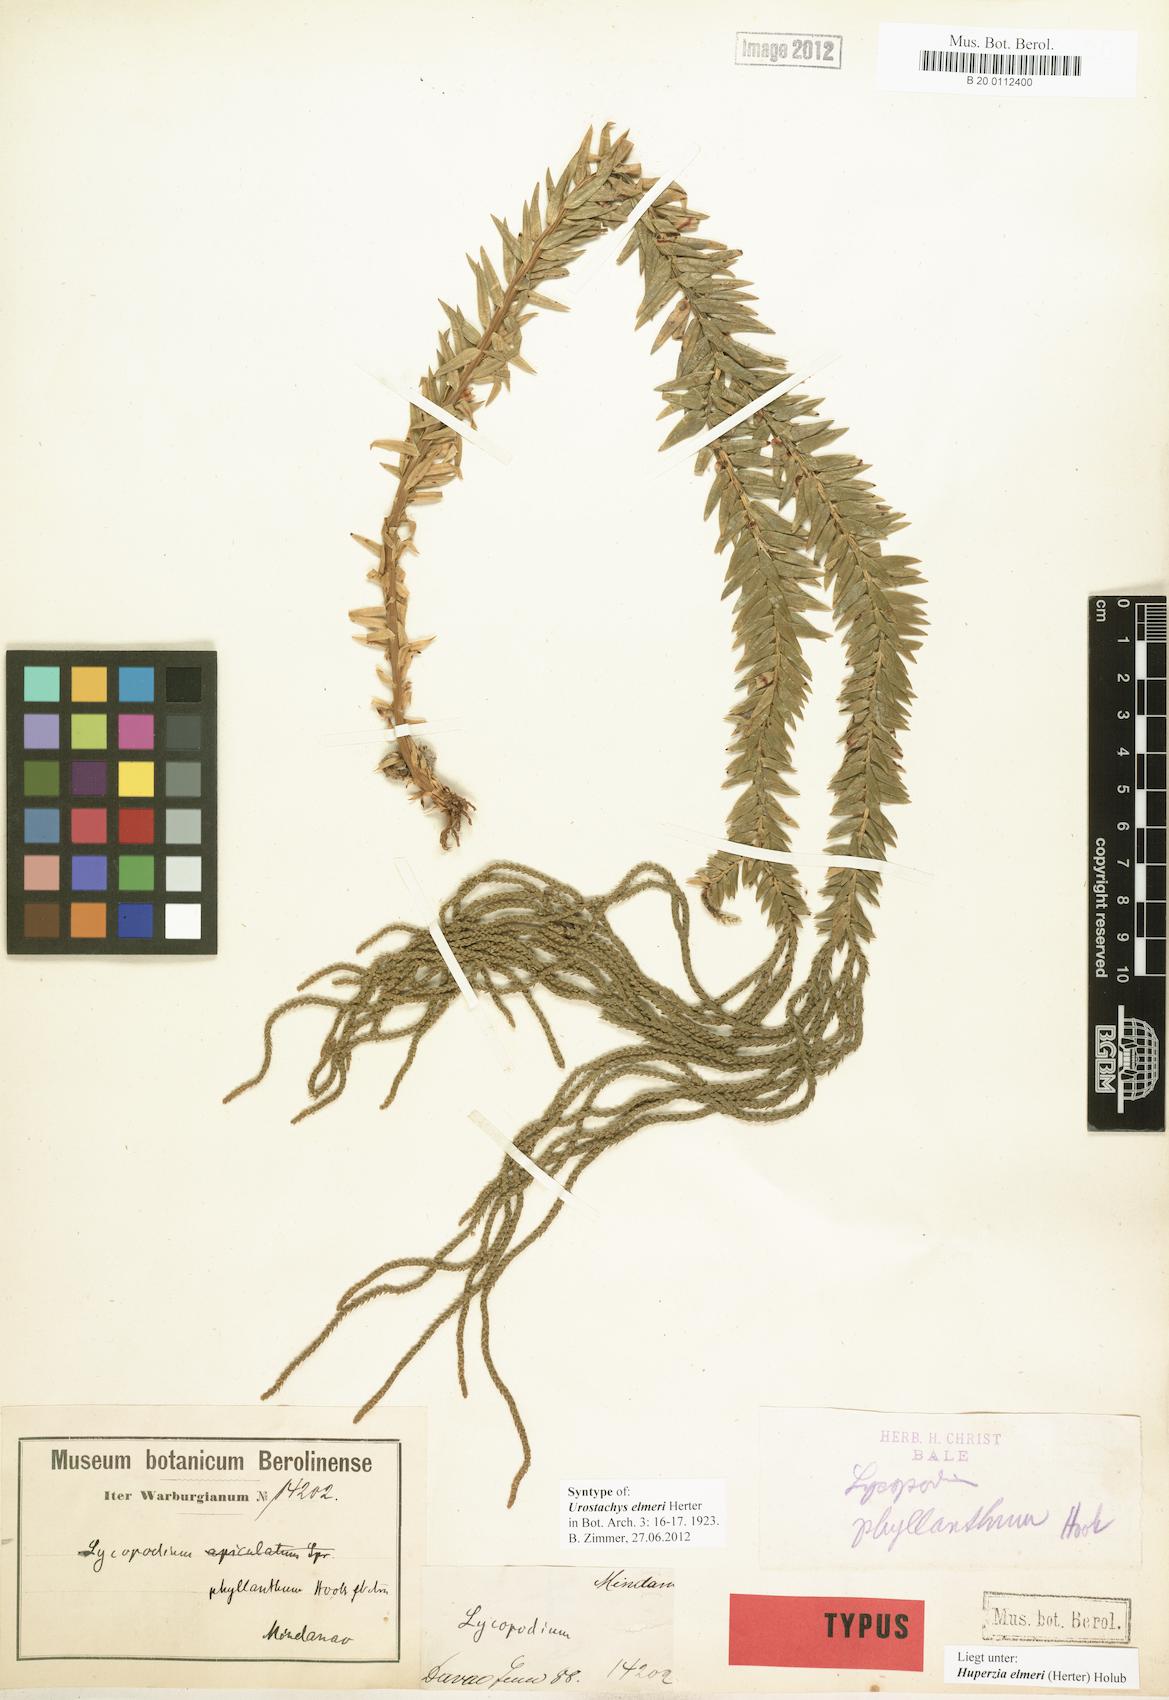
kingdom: Plantae
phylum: Tracheophyta
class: Lycopodiopsida
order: Lycopodiales
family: Lycopodiaceae
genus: Phlegmariurus
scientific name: Phlegmariurus elmeri
